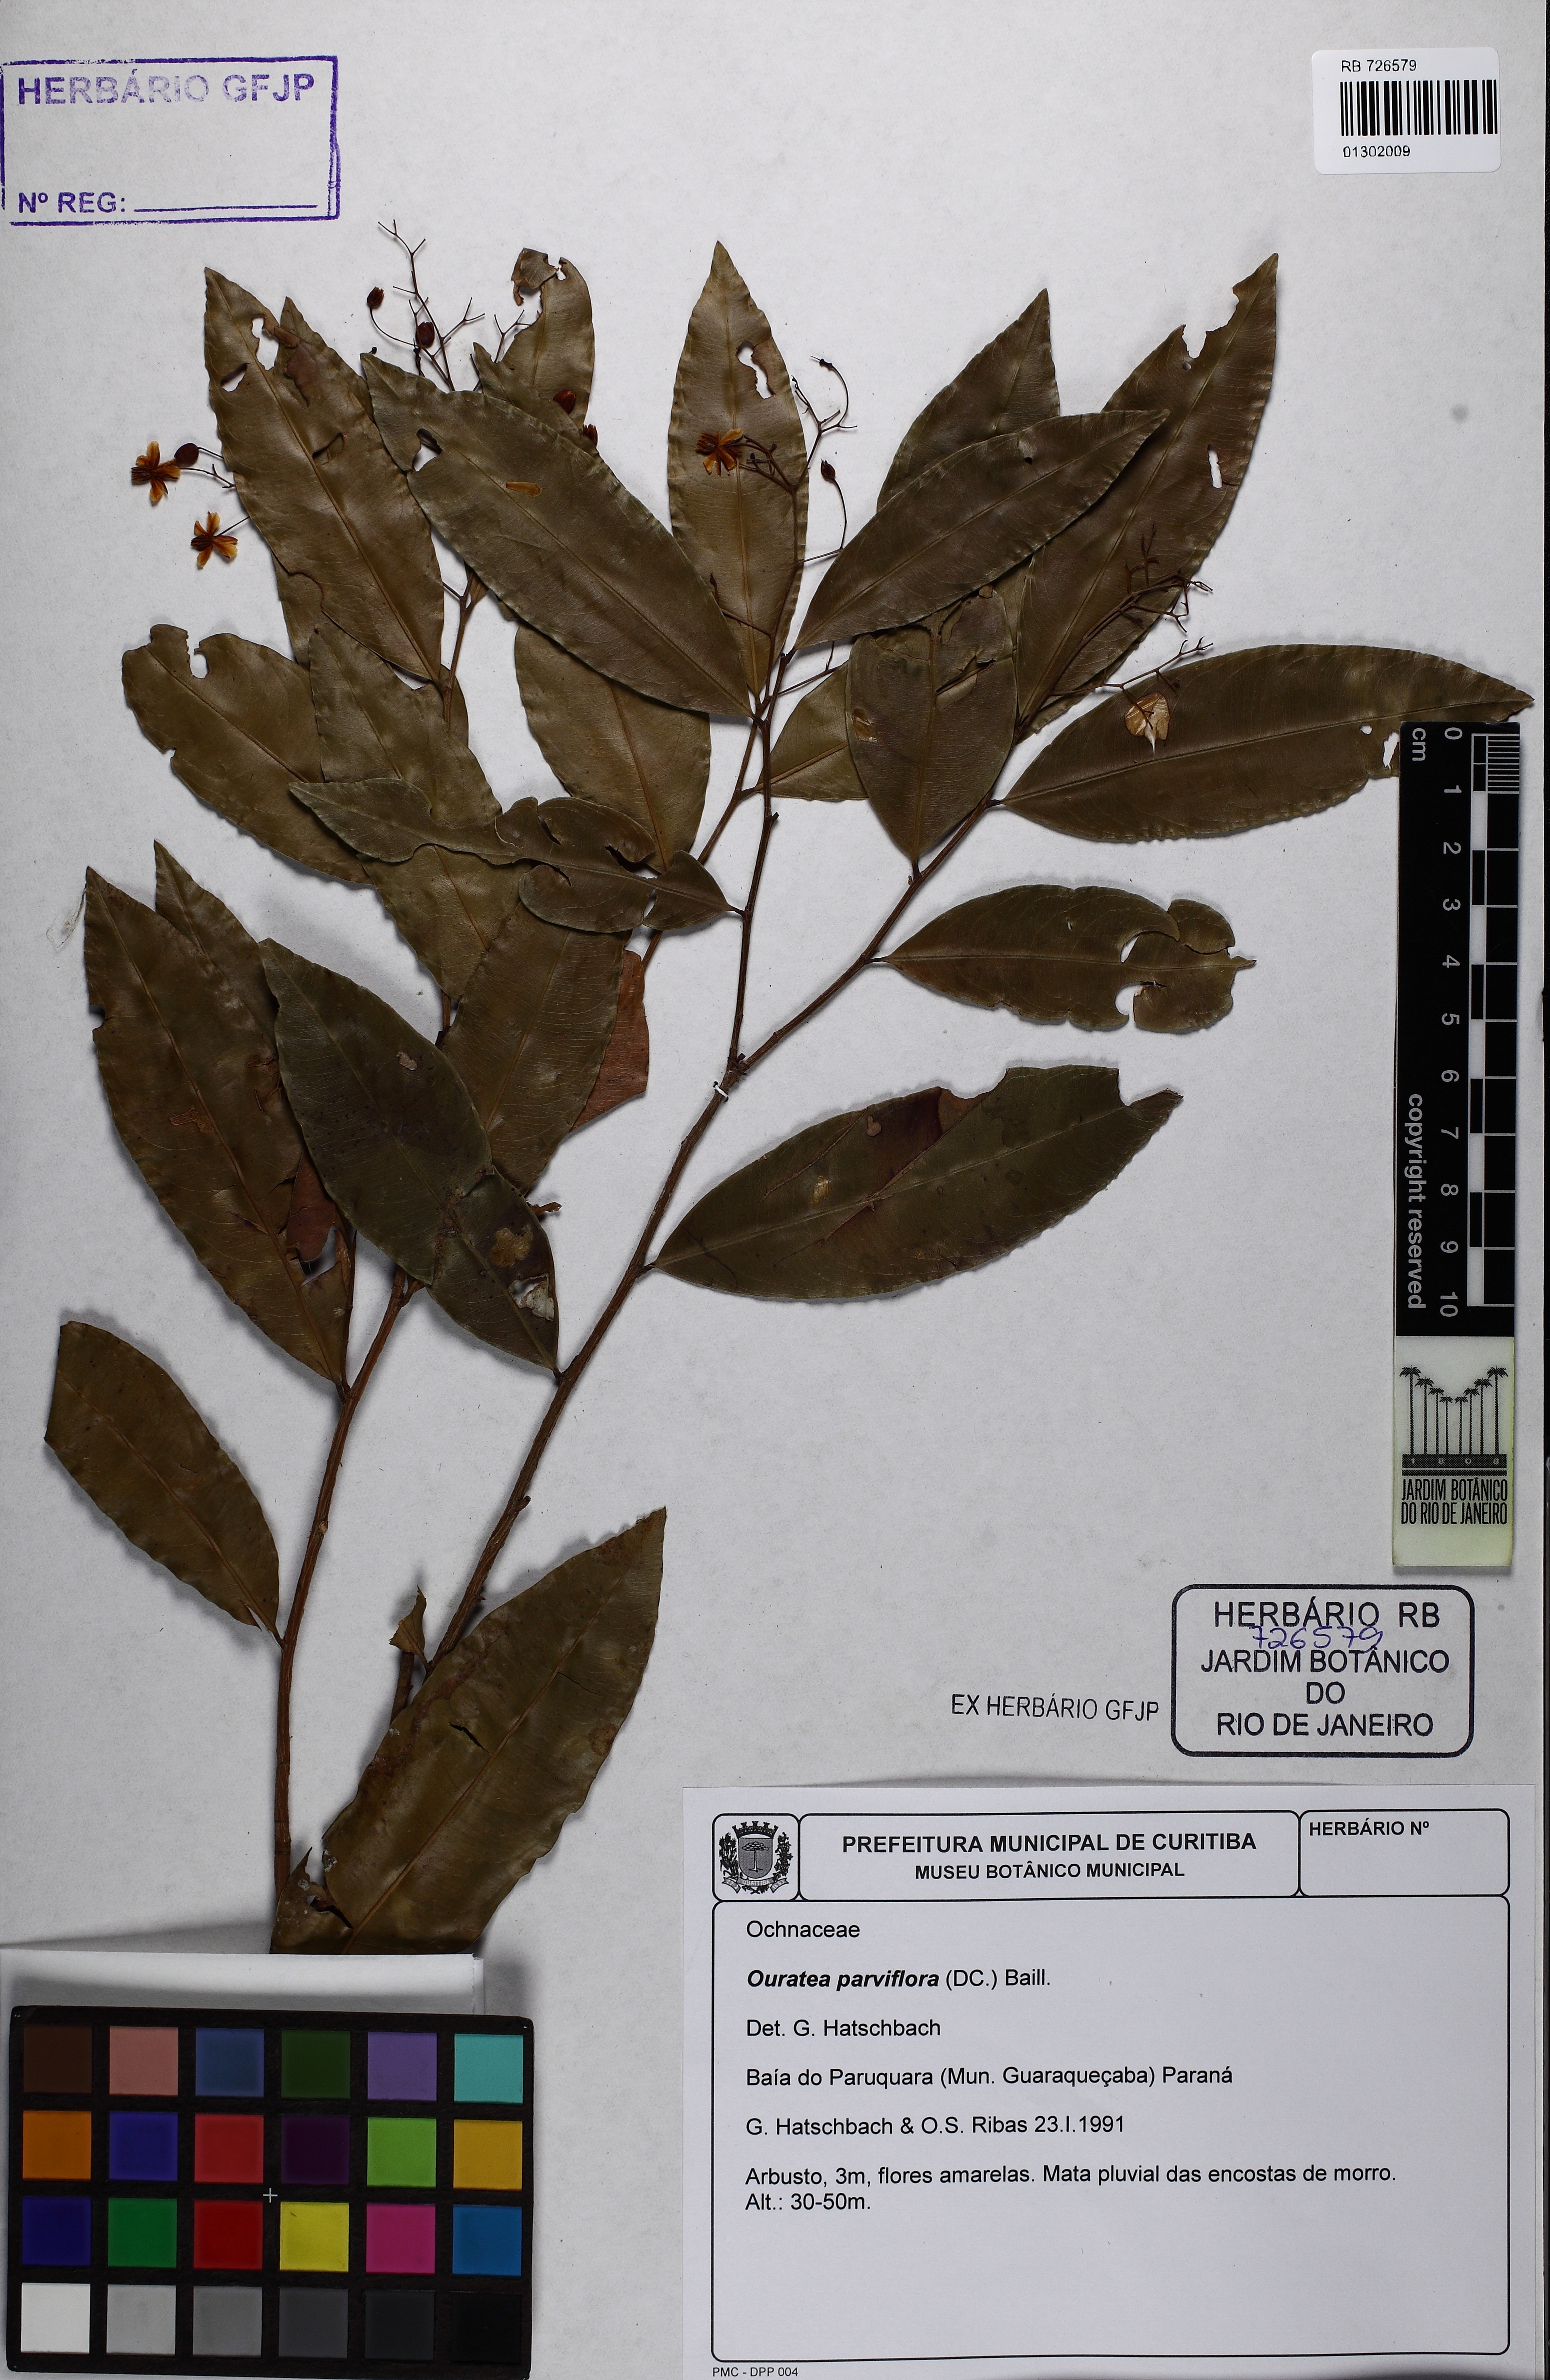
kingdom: Plantae
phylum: Tracheophyta
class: Magnoliopsida
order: Malpighiales
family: Ochnaceae
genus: Ouratea
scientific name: Ouratea parviflora
